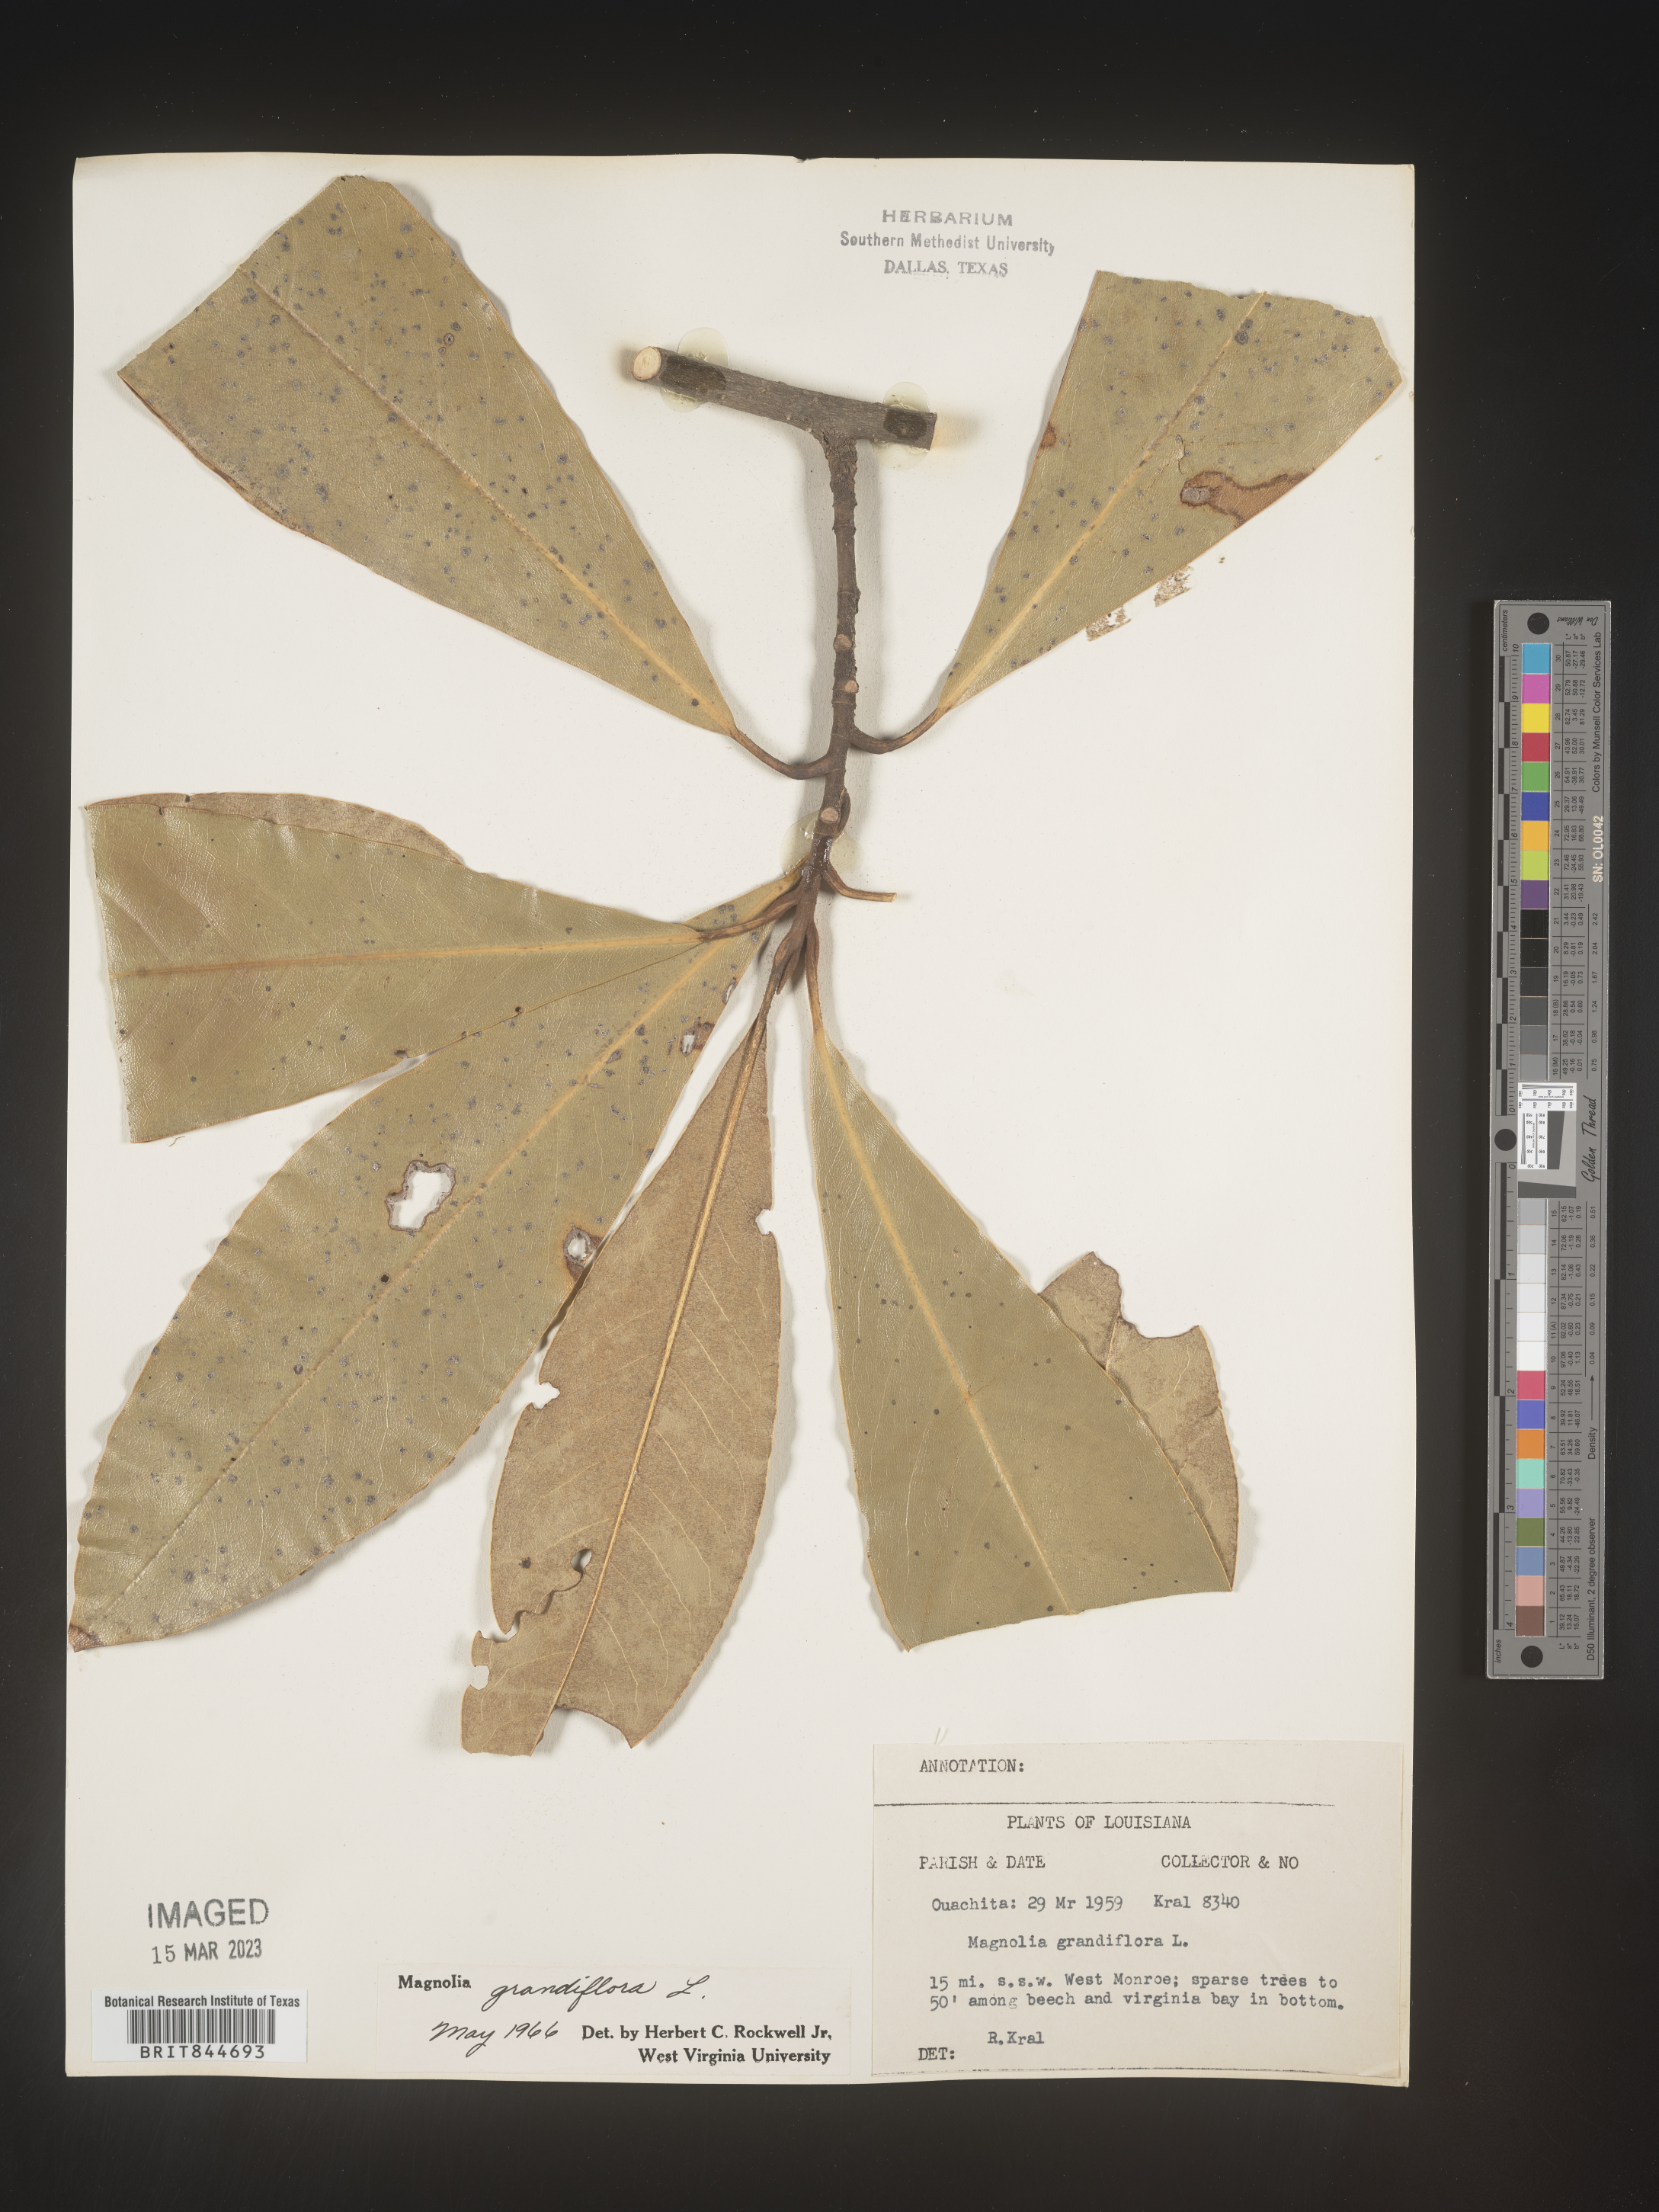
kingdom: Plantae
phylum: Tracheophyta
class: Magnoliopsida
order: Magnoliales
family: Magnoliaceae
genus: Magnolia
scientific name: Magnolia grandiflora
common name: Southern magnolia
